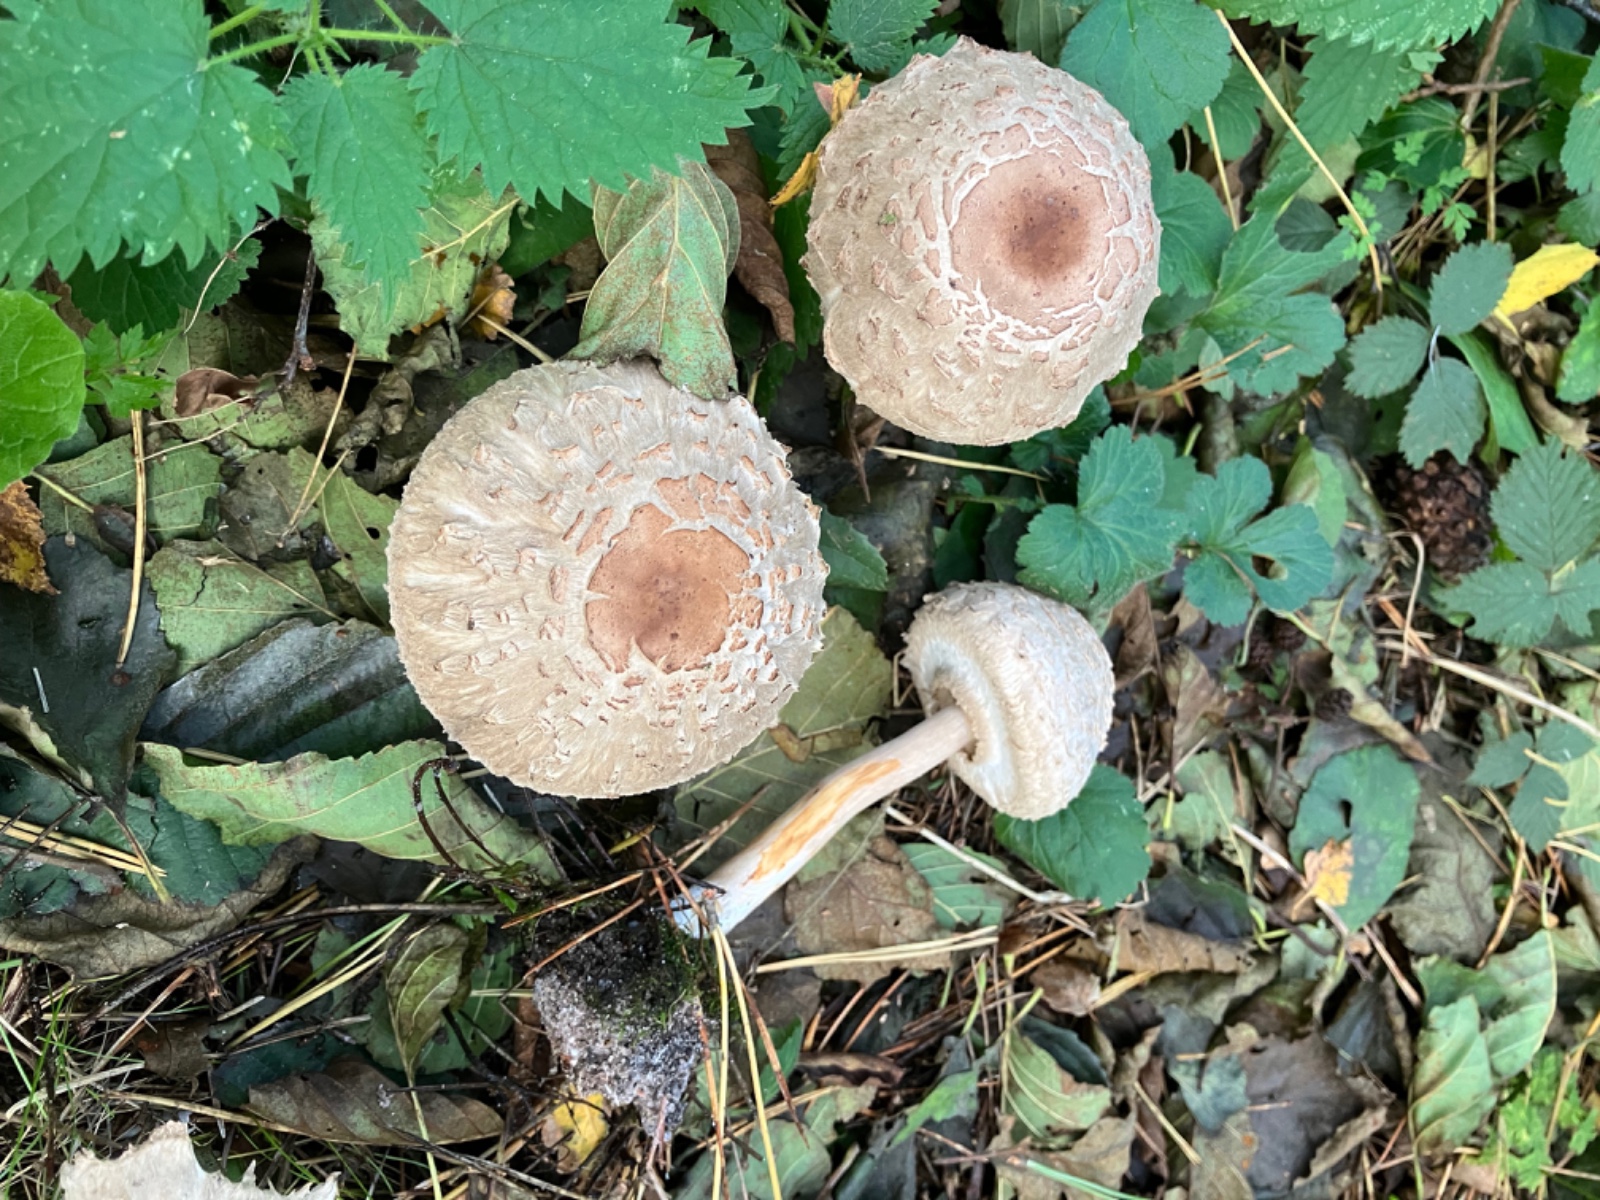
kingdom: Fungi
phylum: Basidiomycota
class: Agaricomycetes
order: Agaricales
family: Agaricaceae
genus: Chlorophyllum
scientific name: Chlorophyllum olivieri
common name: almindelig rabarberhat
